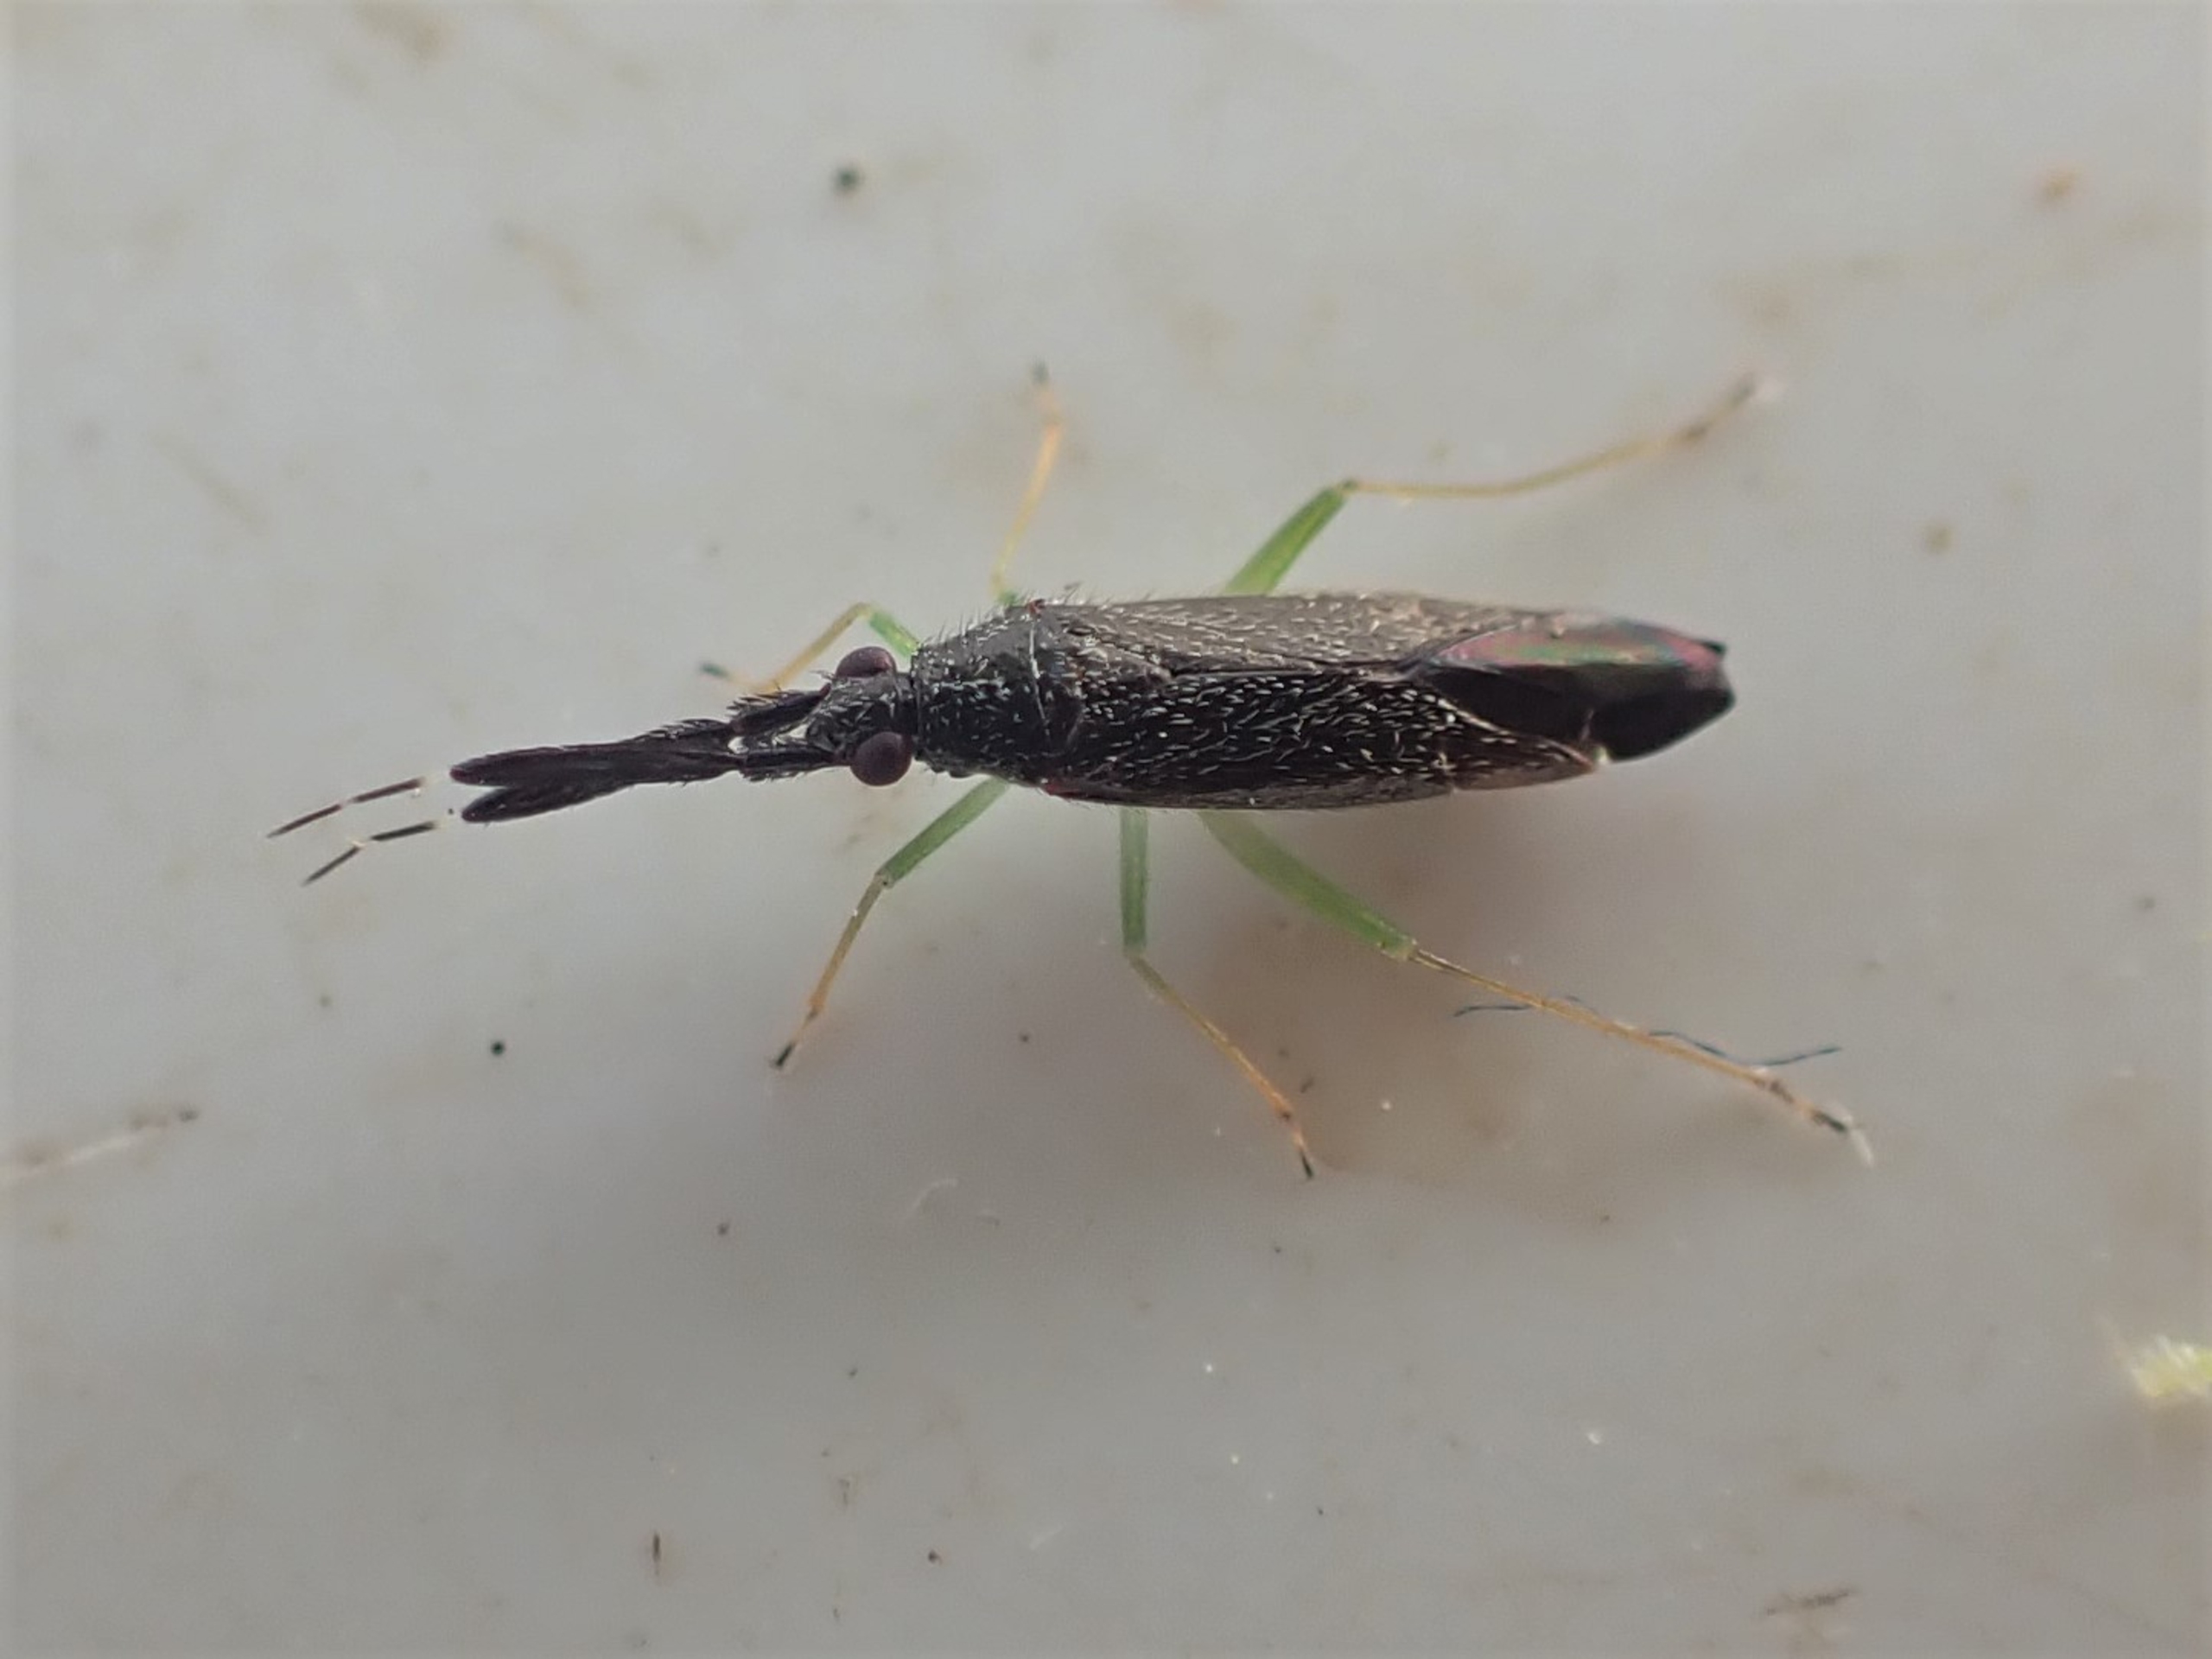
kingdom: Animalia
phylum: Arthropoda
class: Insecta
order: Hemiptera
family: Miridae
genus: Heterotoma
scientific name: Heterotoma planicornis
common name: Køllehornet blomstertæge
